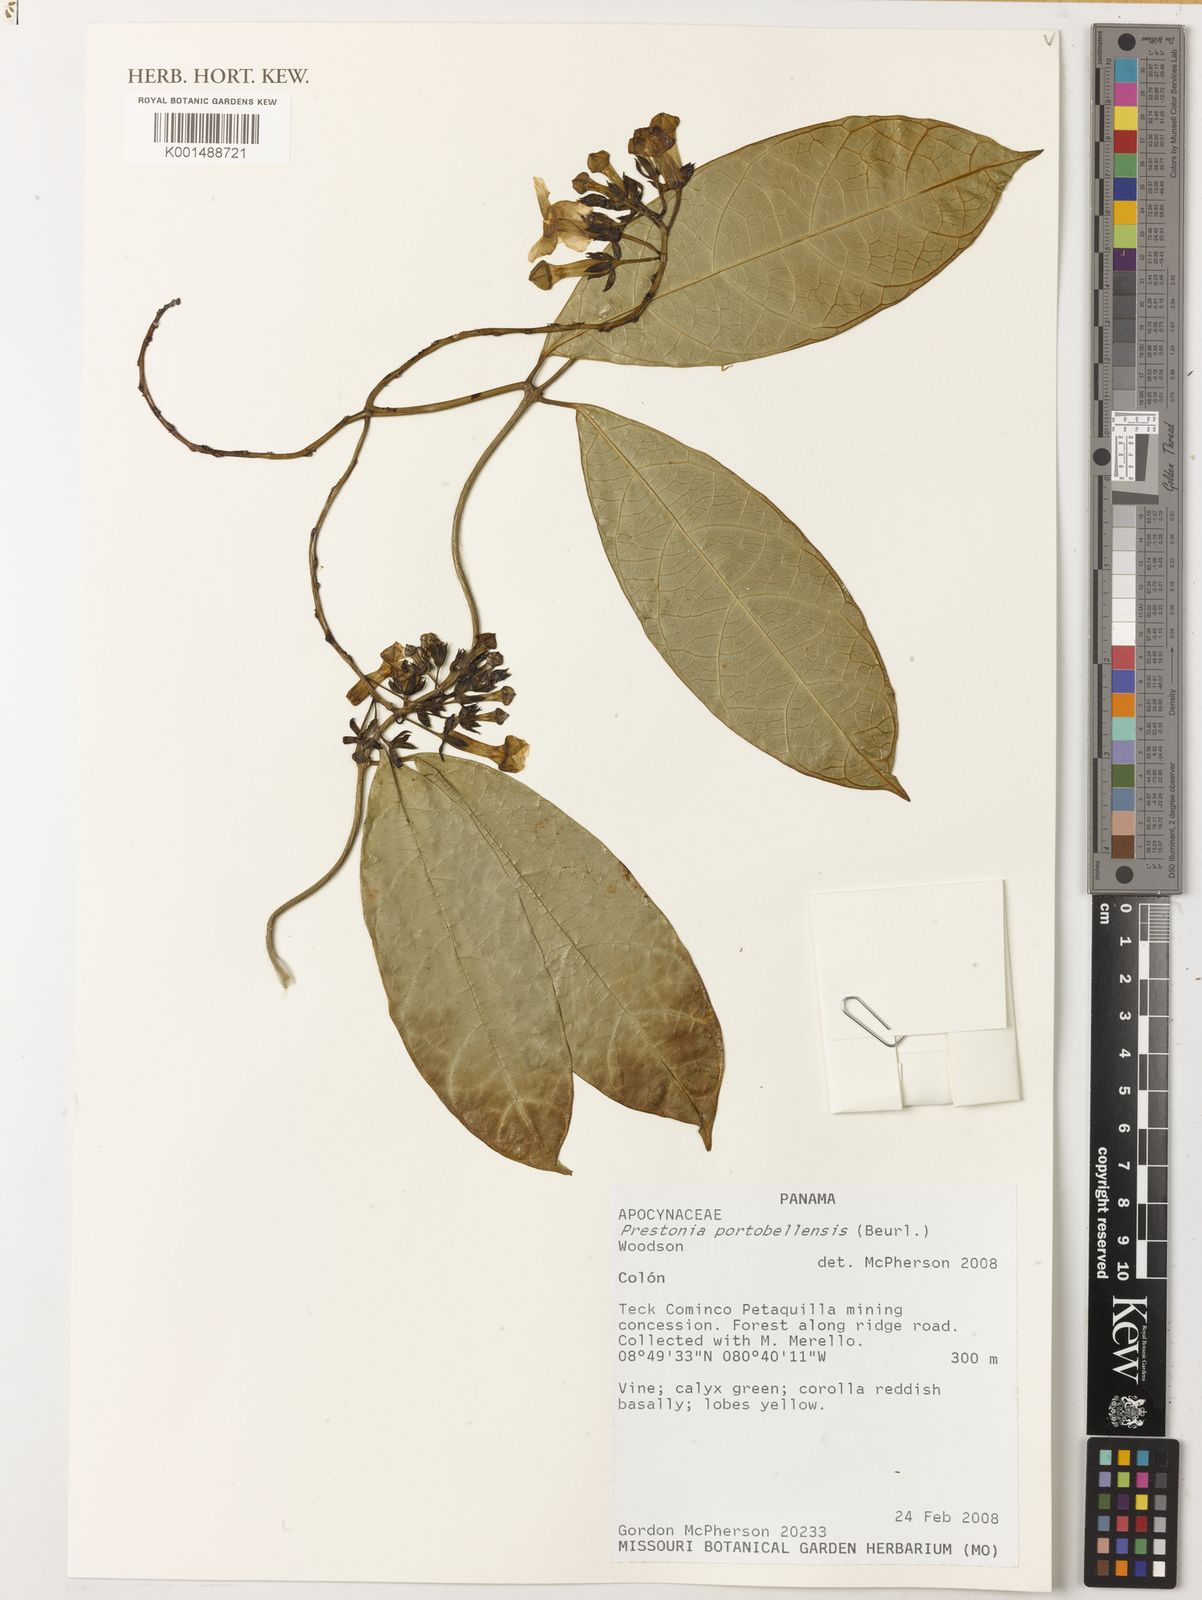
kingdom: Plantae
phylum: Tracheophyta
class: Magnoliopsida
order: Gentianales
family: Apocynaceae
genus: Prestonia
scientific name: Prestonia portobellensis
